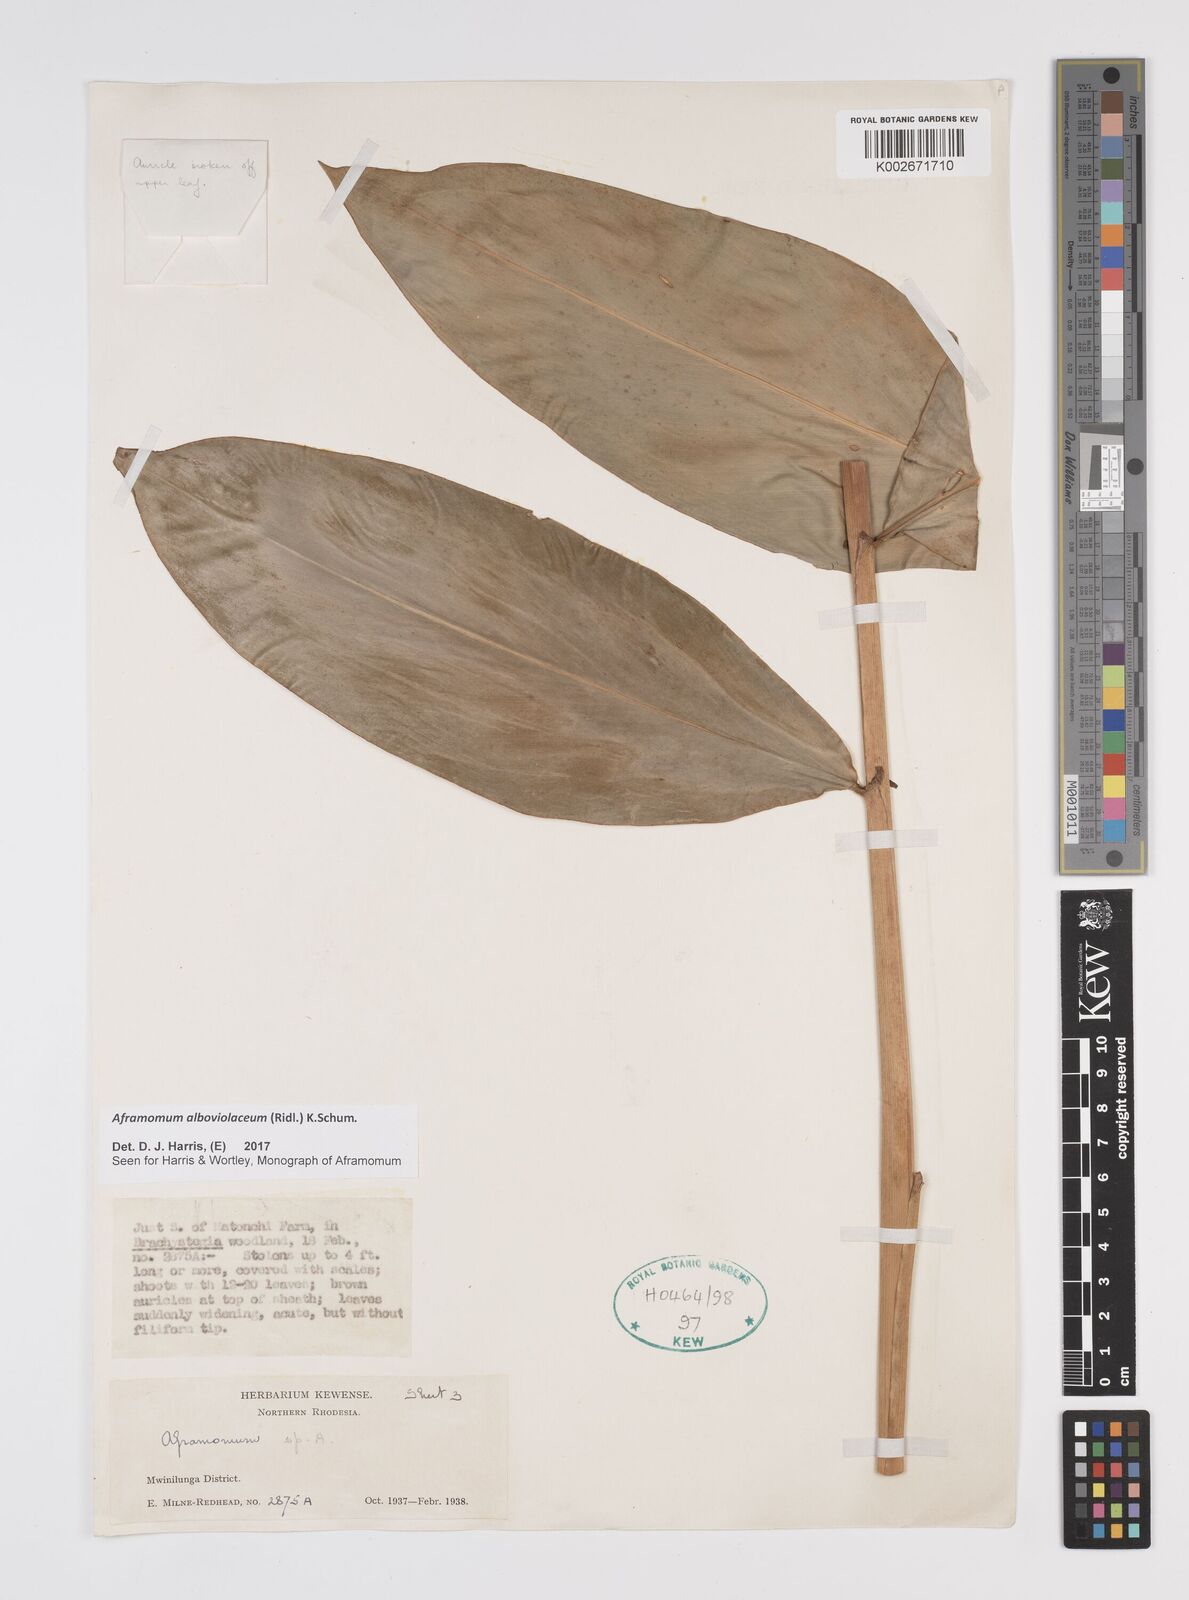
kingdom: Plantae
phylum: Tracheophyta
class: Liliopsida
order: Zingiberales
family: Zingiberaceae
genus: Aframomum
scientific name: Aframomum alboviolaceum
